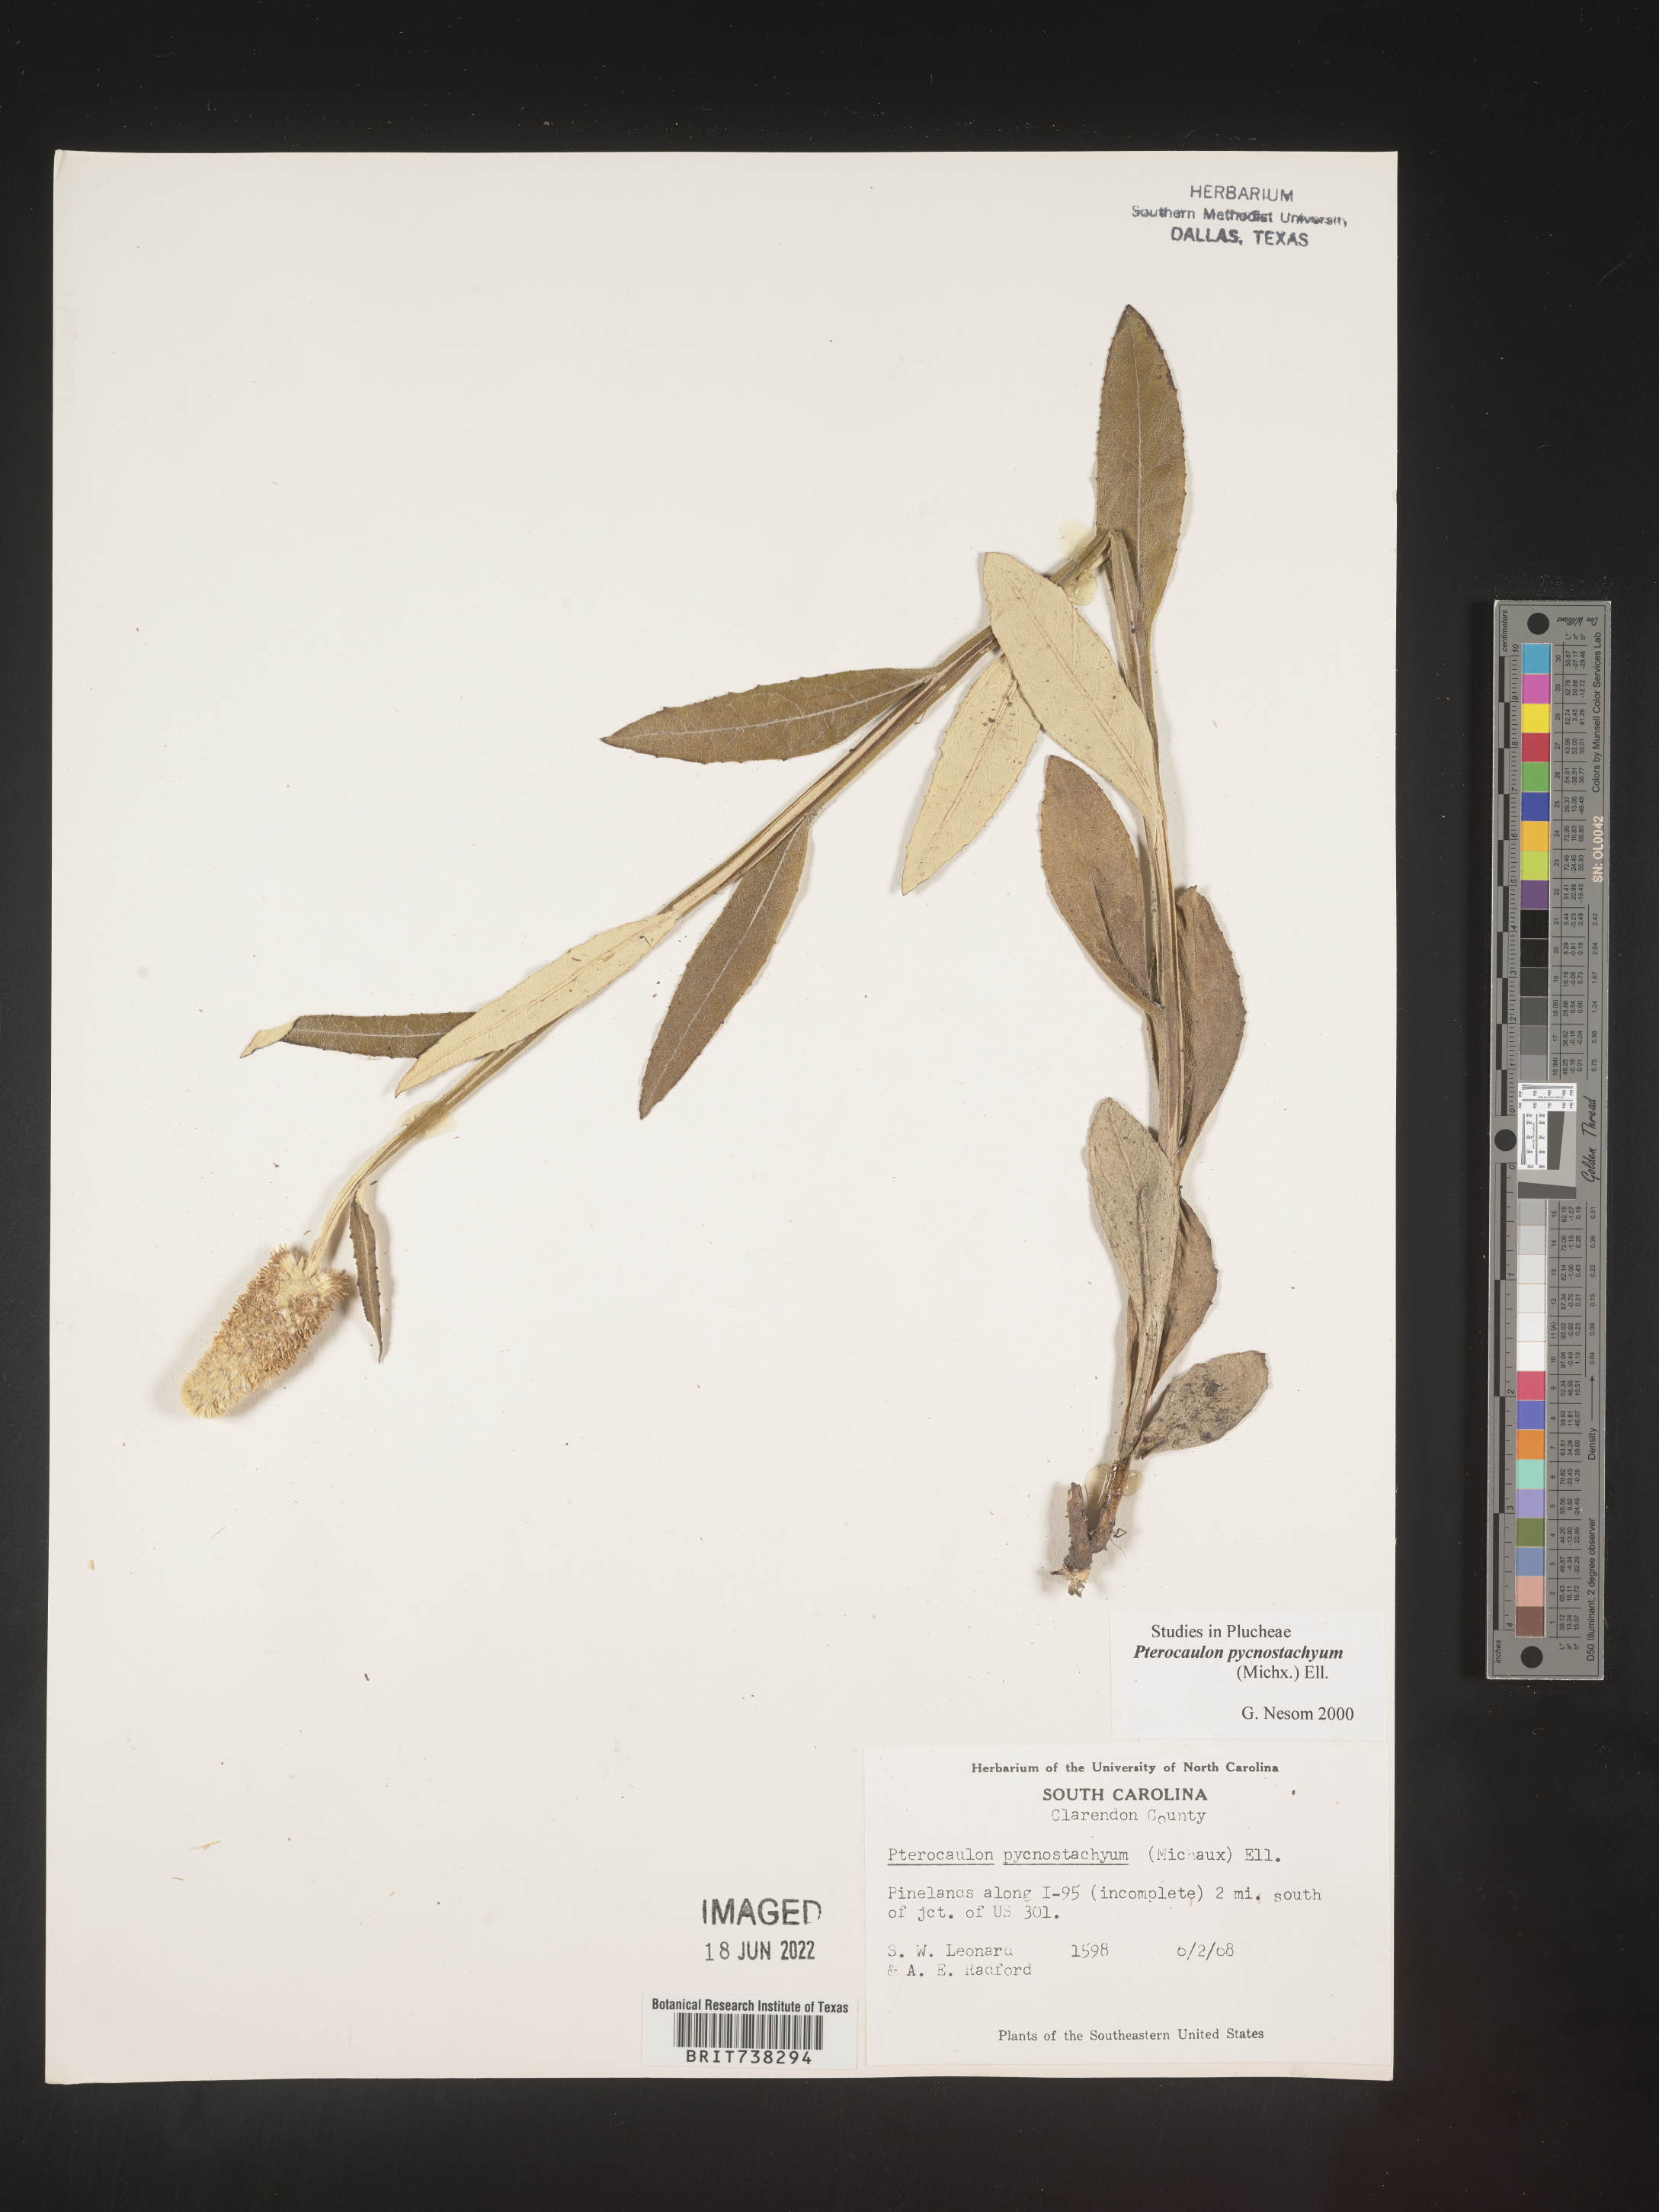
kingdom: Plantae
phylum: Tracheophyta
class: Magnoliopsida
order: Asterales
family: Asteraceae
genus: Pterocaulon
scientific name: Pterocaulon pycnostachyum
